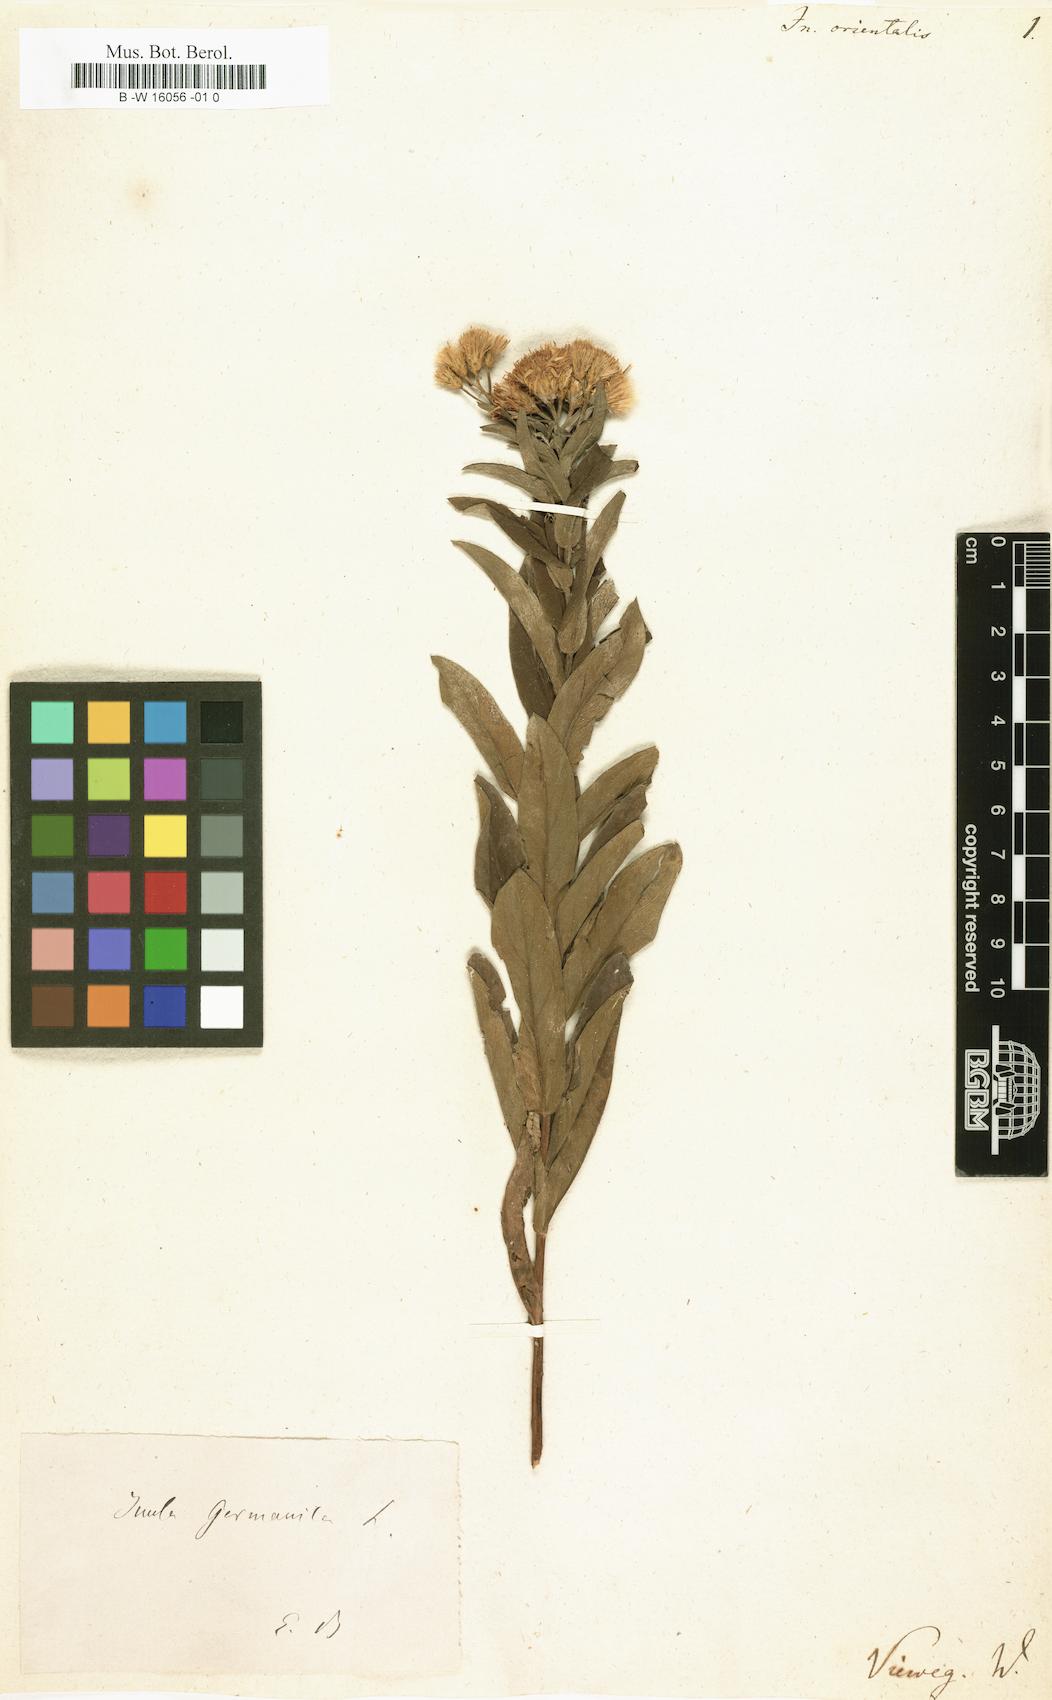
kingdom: Plantae
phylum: Tracheophyta
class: Magnoliopsida
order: Asterales
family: Asteraceae
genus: Pentanema
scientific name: Pentanema orientale
